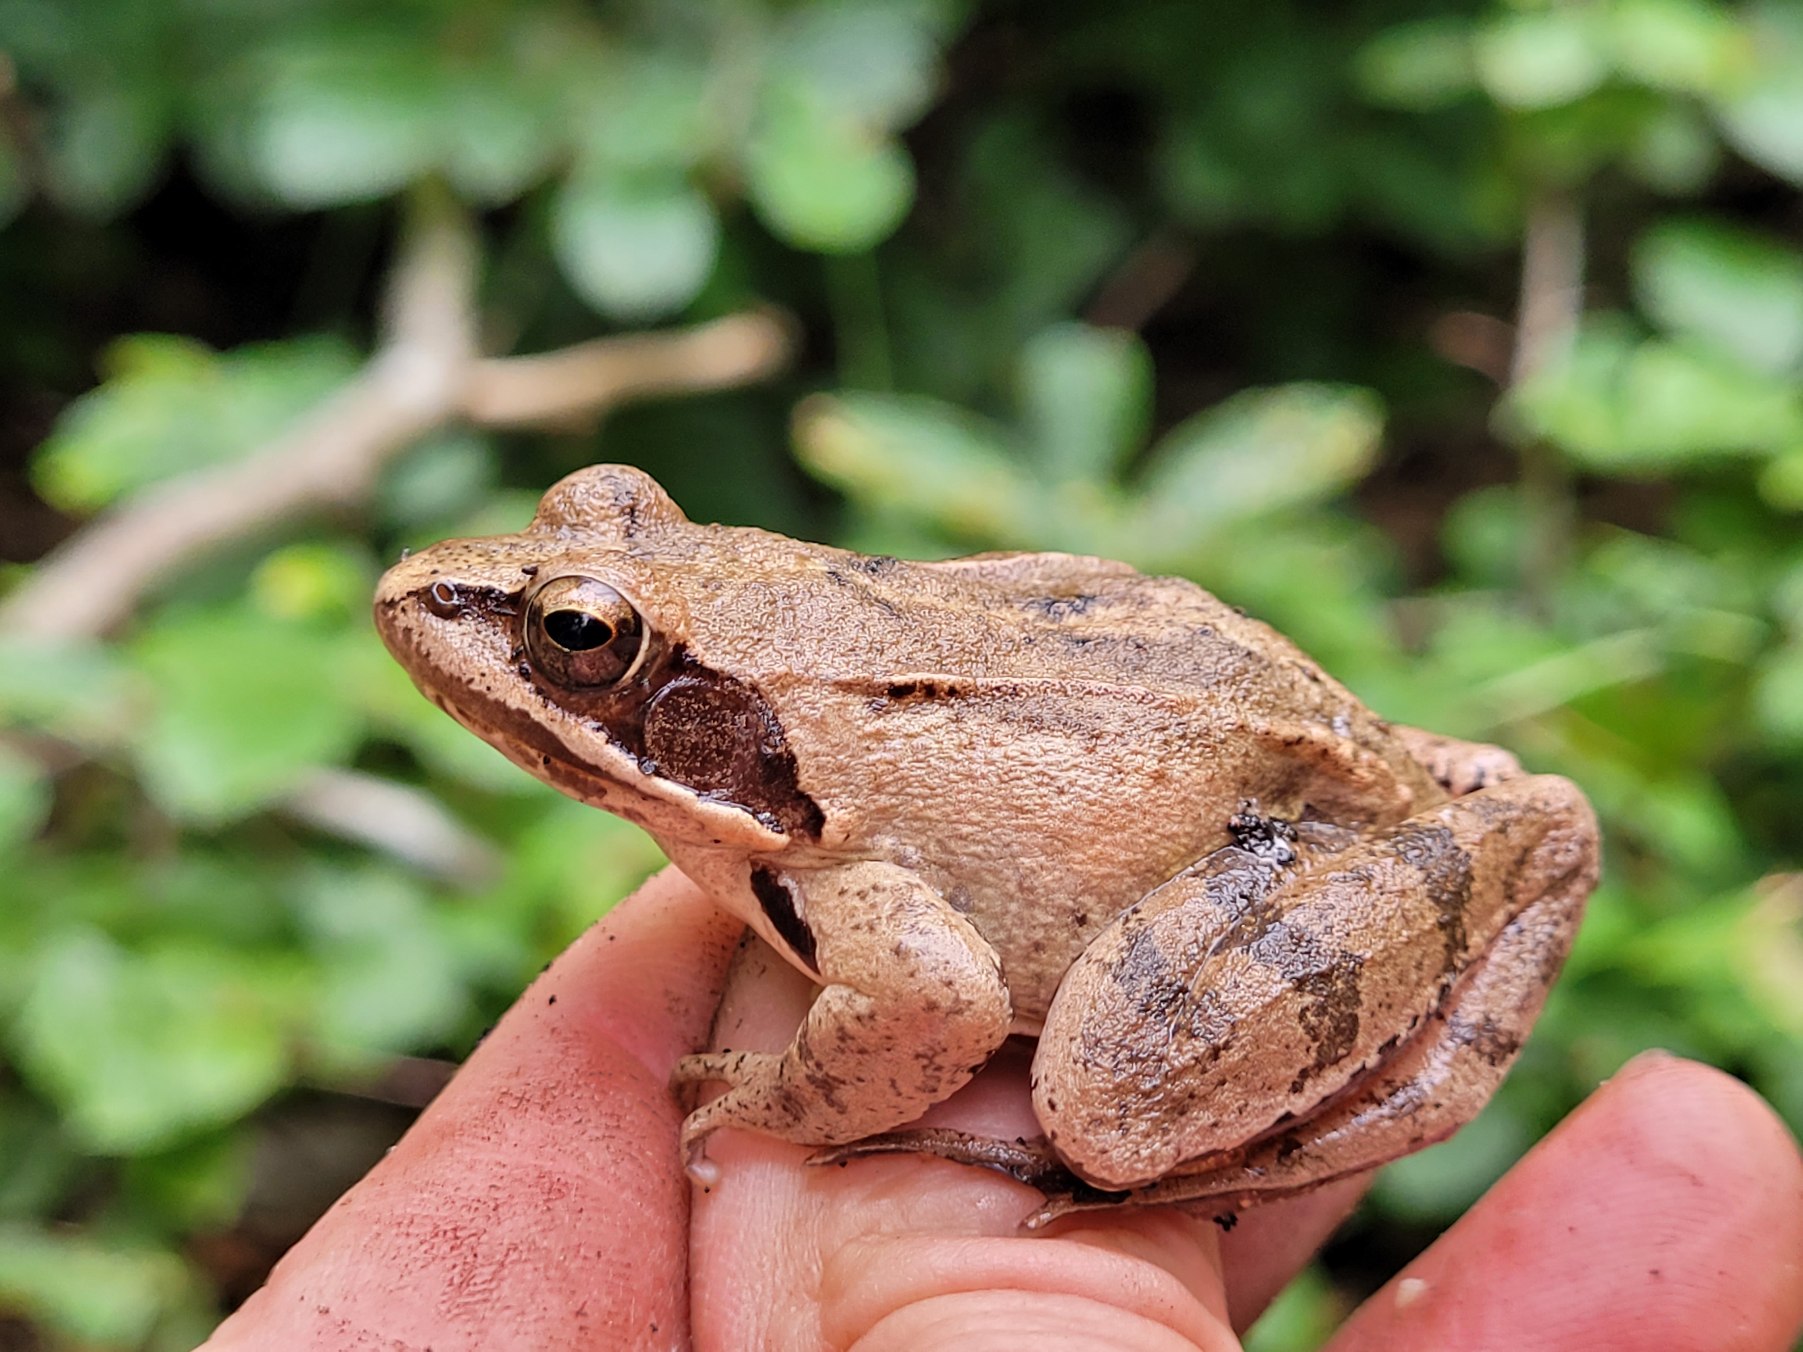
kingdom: Animalia
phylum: Chordata
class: Amphibia
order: Anura
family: Ranidae
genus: Rana
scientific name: Rana dalmatina
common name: Springfrø
